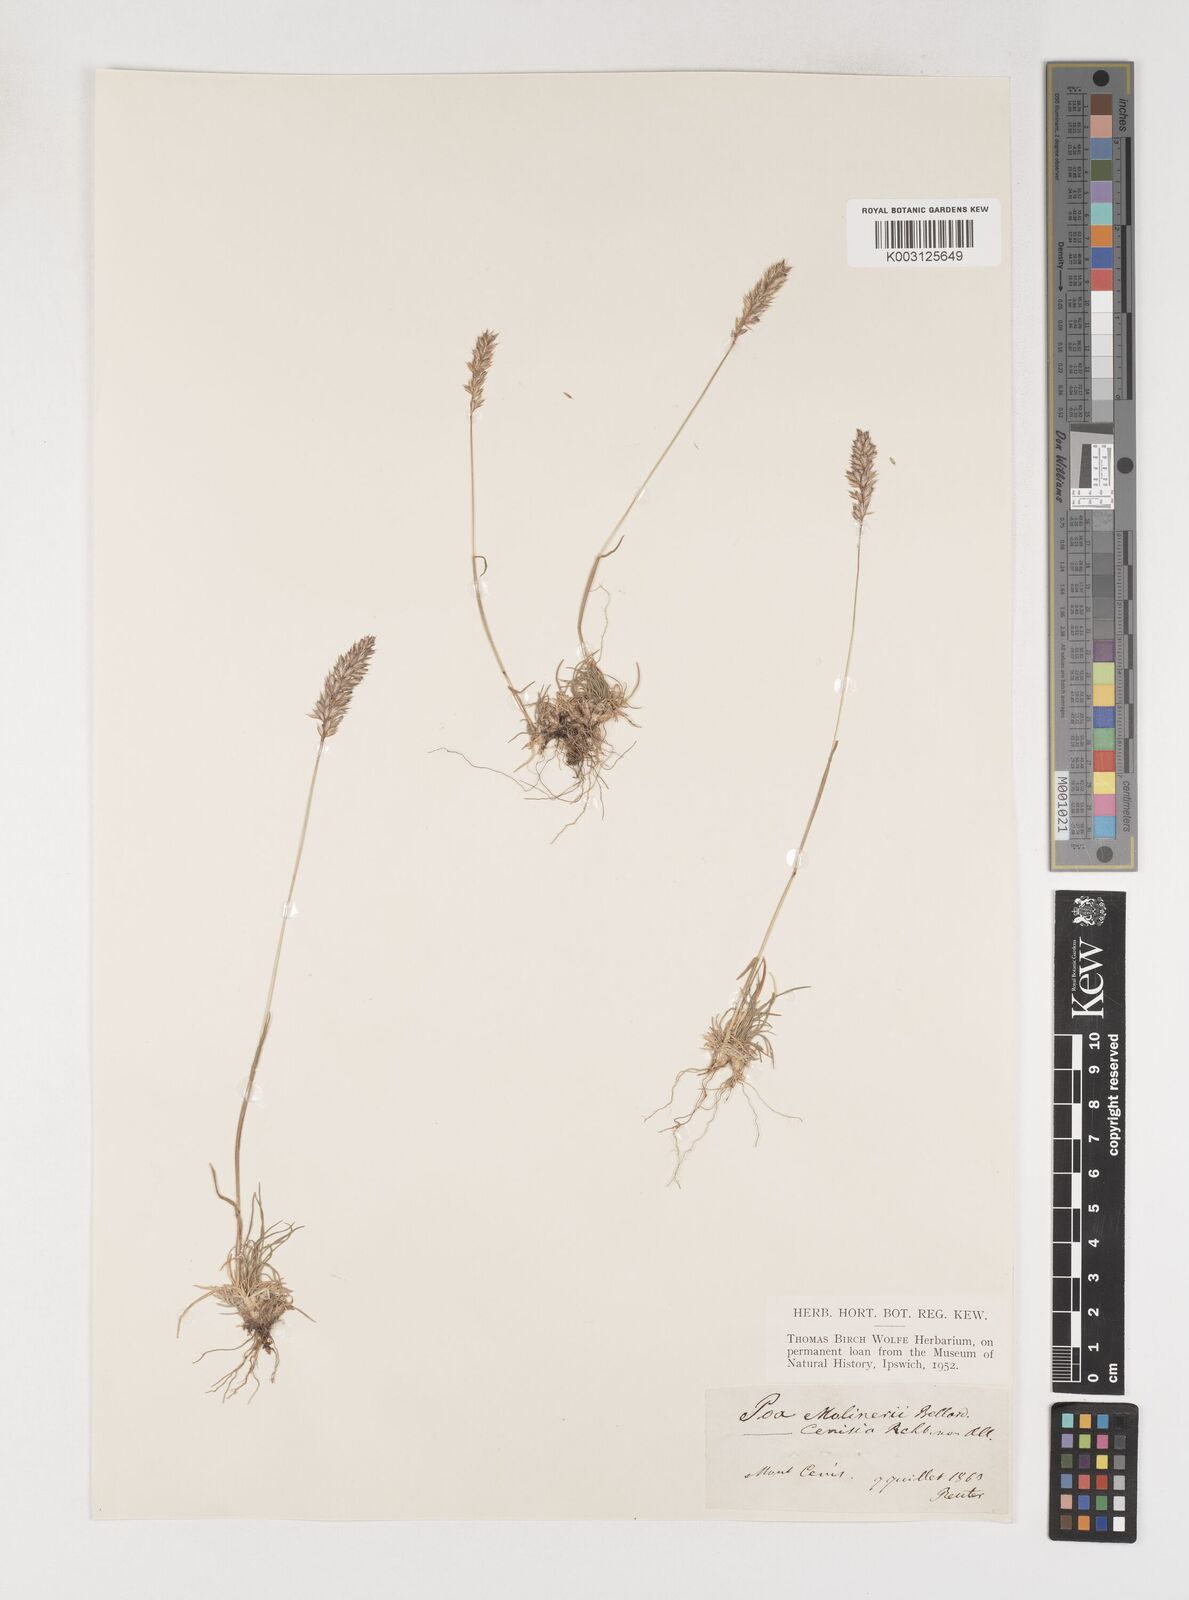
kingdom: Plantae
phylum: Tracheophyta
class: Liliopsida
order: Poales
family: Poaceae
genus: Poa
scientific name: Poa
